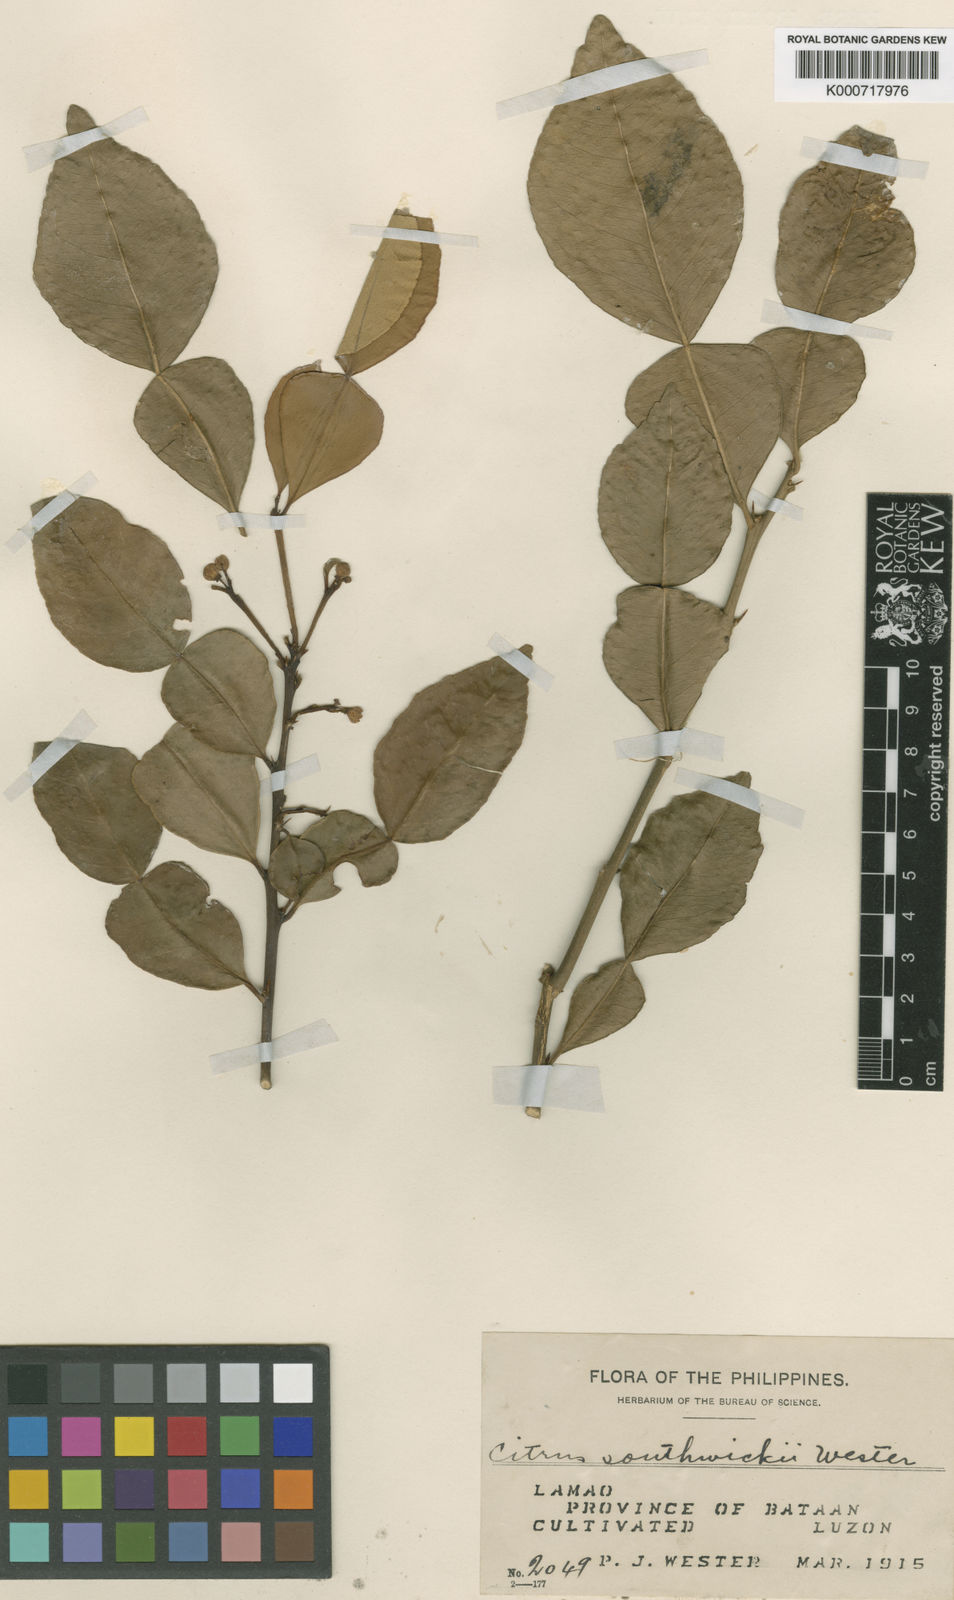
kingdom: Plantae
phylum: Tracheophyta
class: Magnoliopsida
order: Sapindales
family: Rutaceae
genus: Citrus
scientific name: Citrus hystrix
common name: Kaffir-lime
